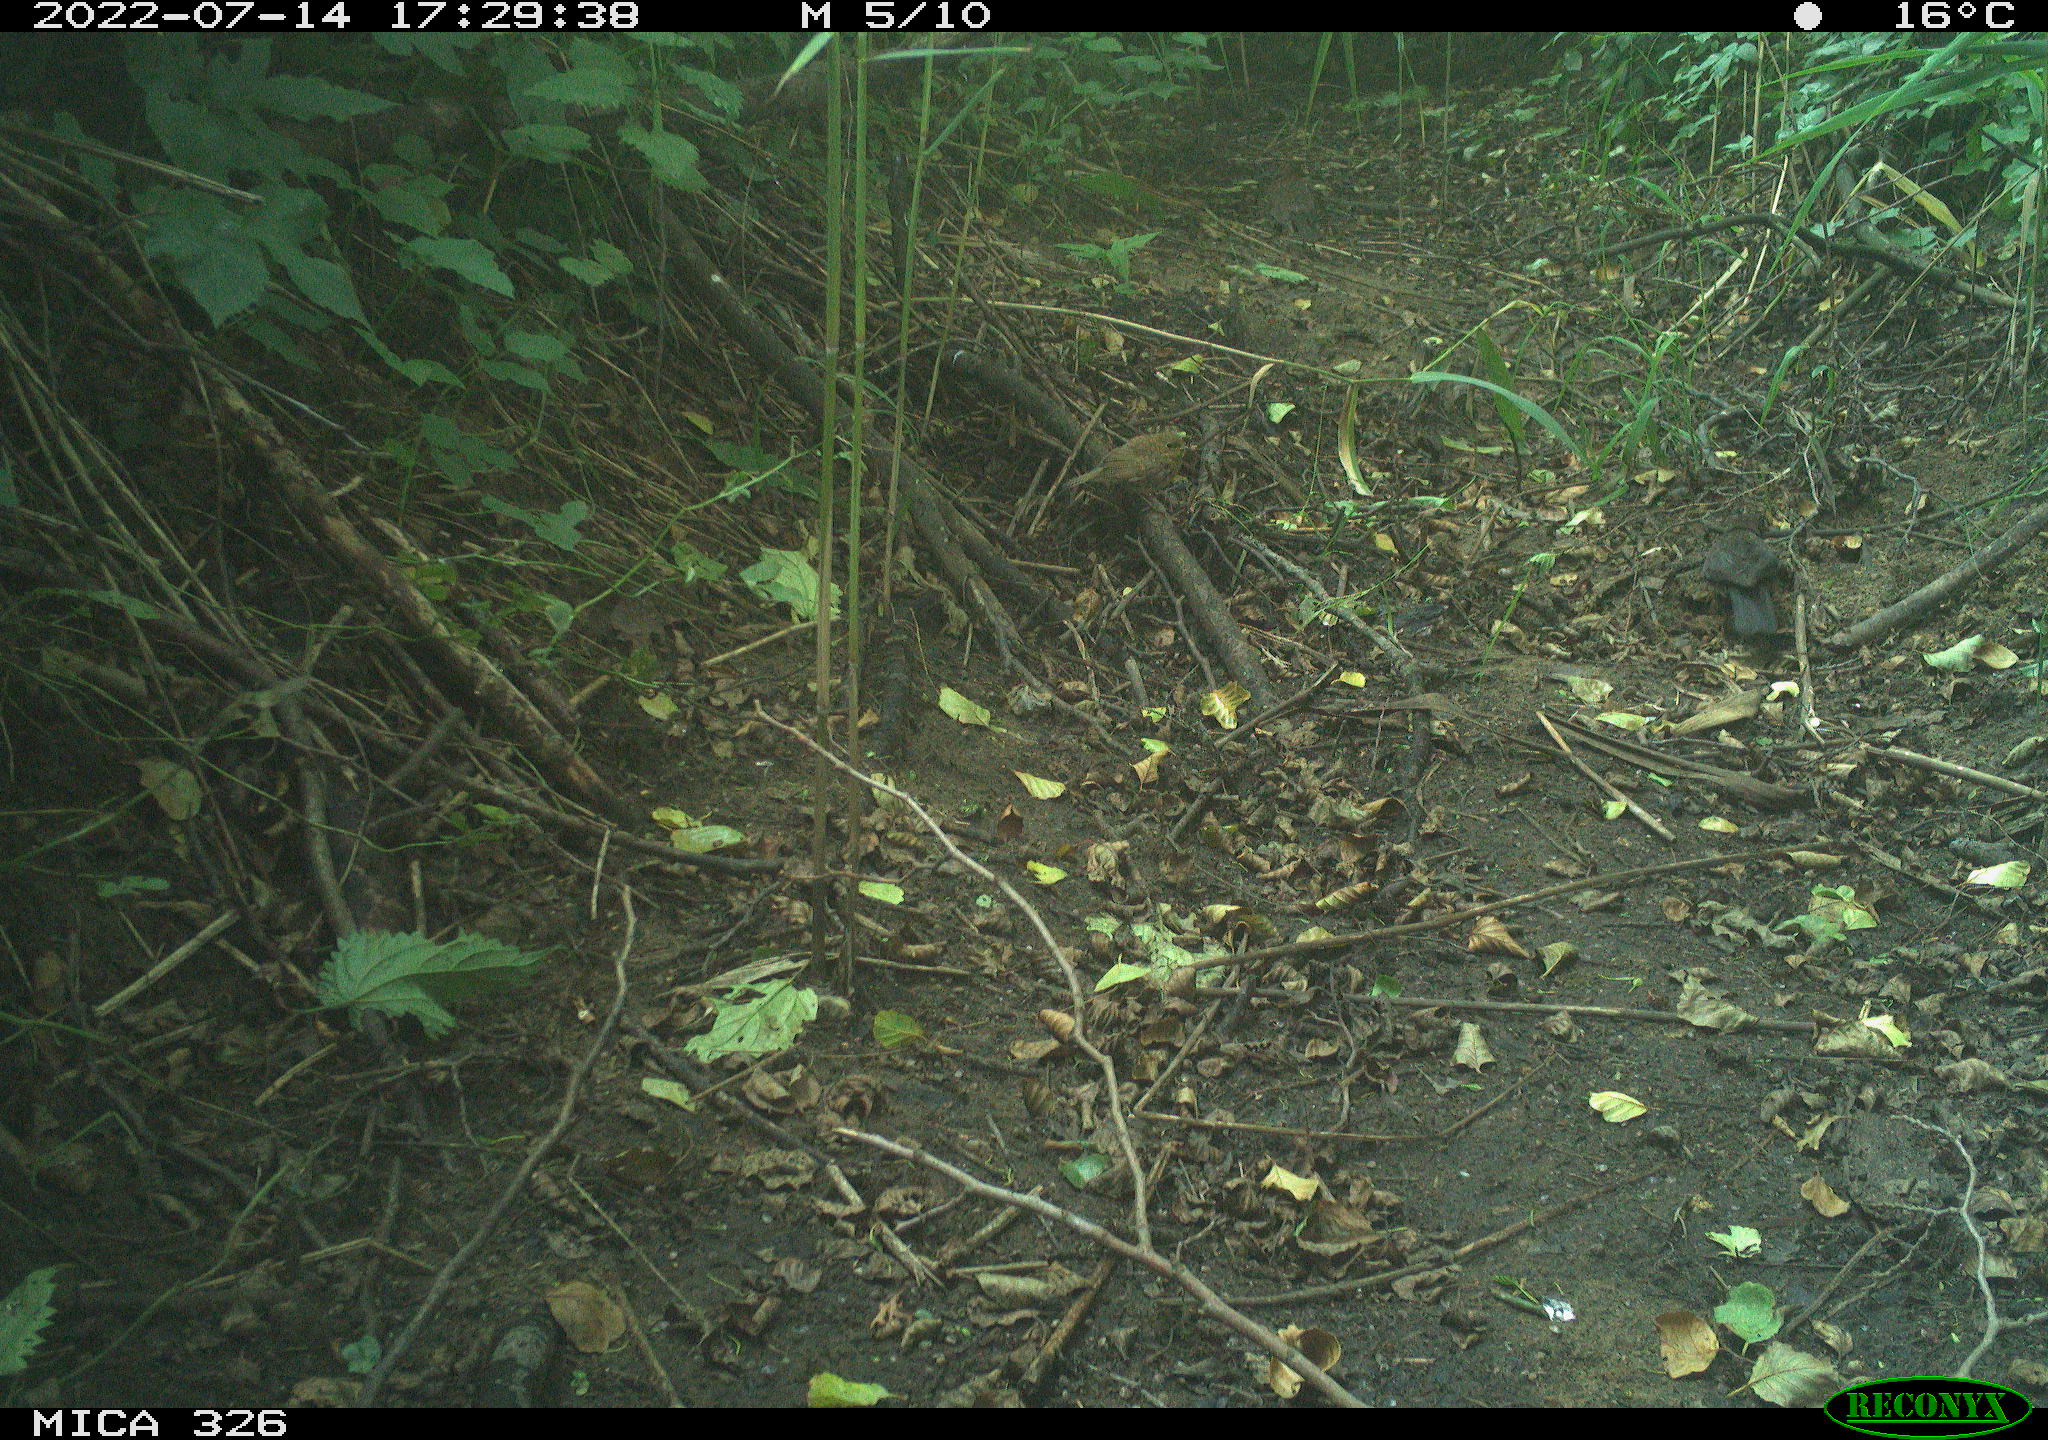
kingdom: Animalia
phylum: Chordata
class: Aves
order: Passeriformes
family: Turdidae
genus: Turdus
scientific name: Turdus
